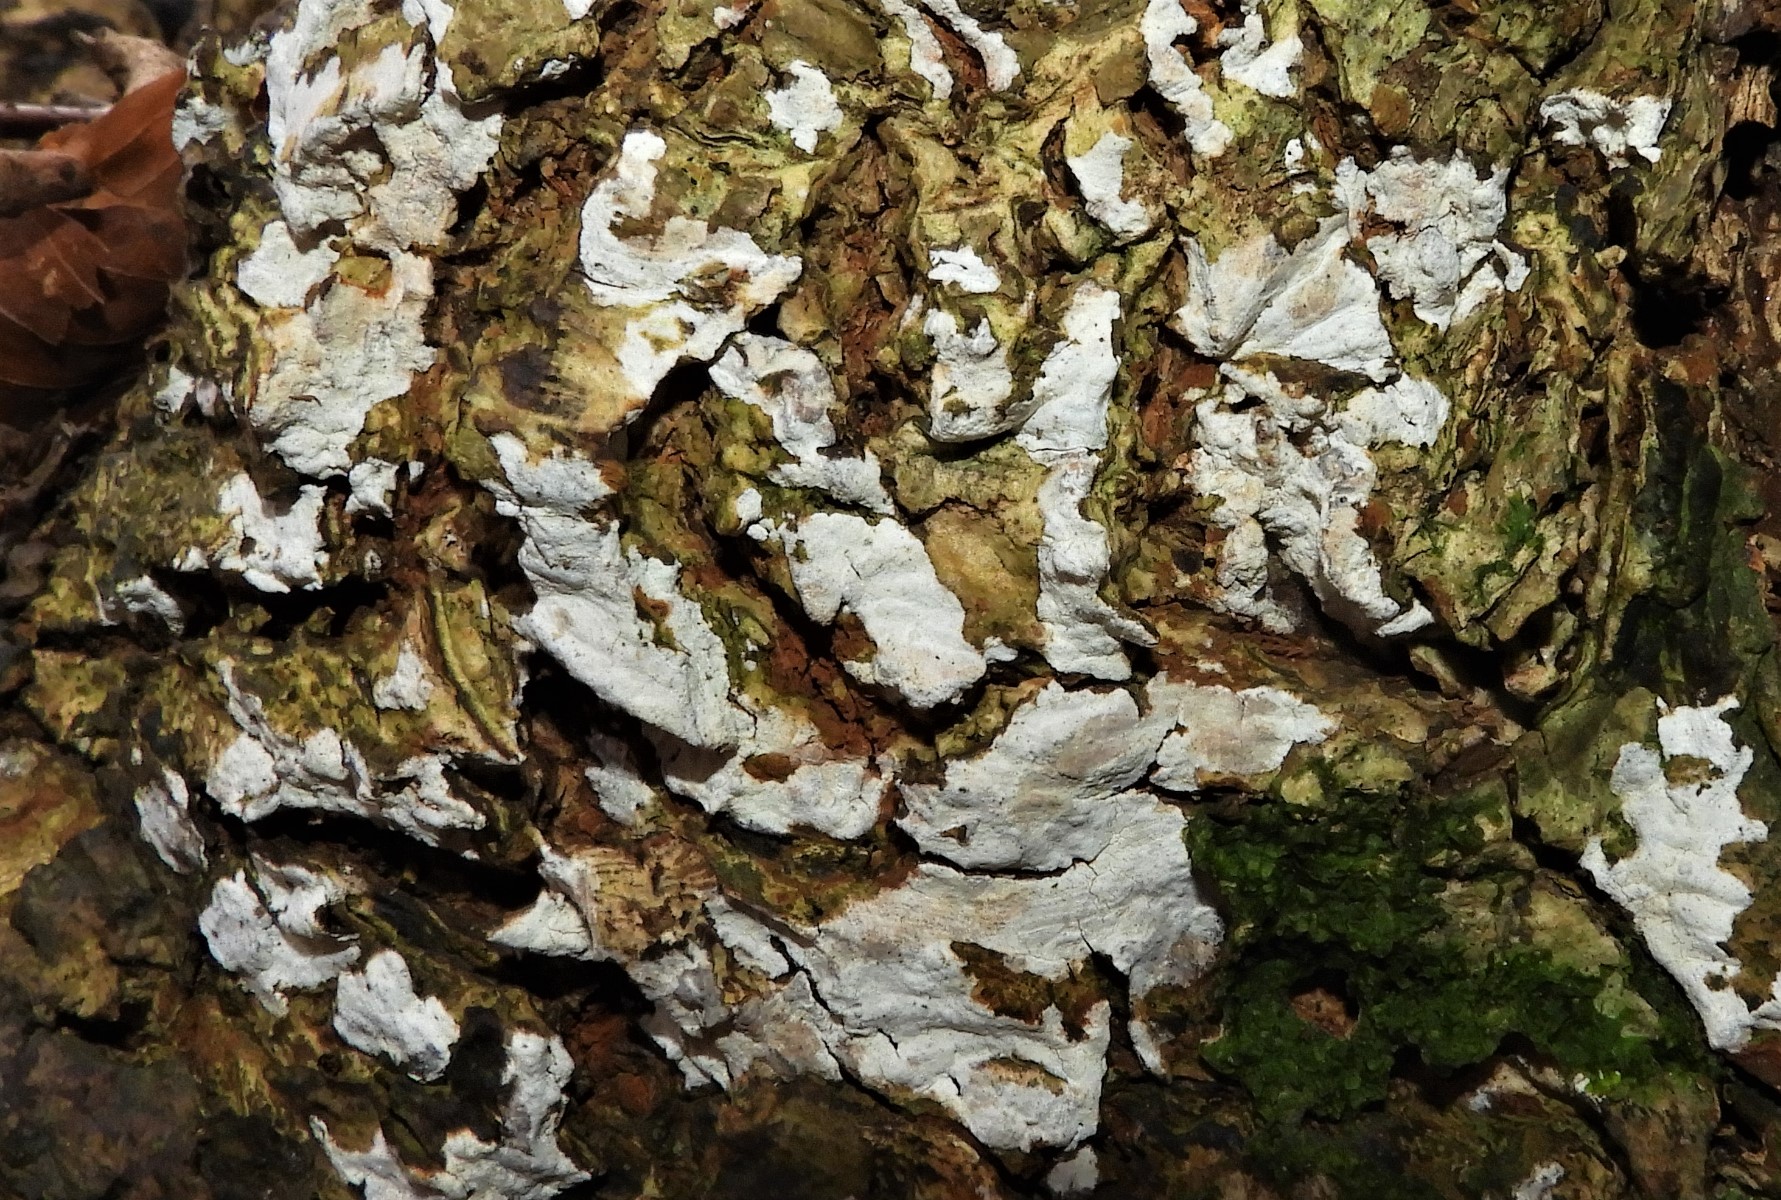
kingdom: Fungi
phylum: Basidiomycota
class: Agaricomycetes
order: Agaricales
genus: Dendrothele
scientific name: Dendrothele acerina
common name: navr-kalkplet
